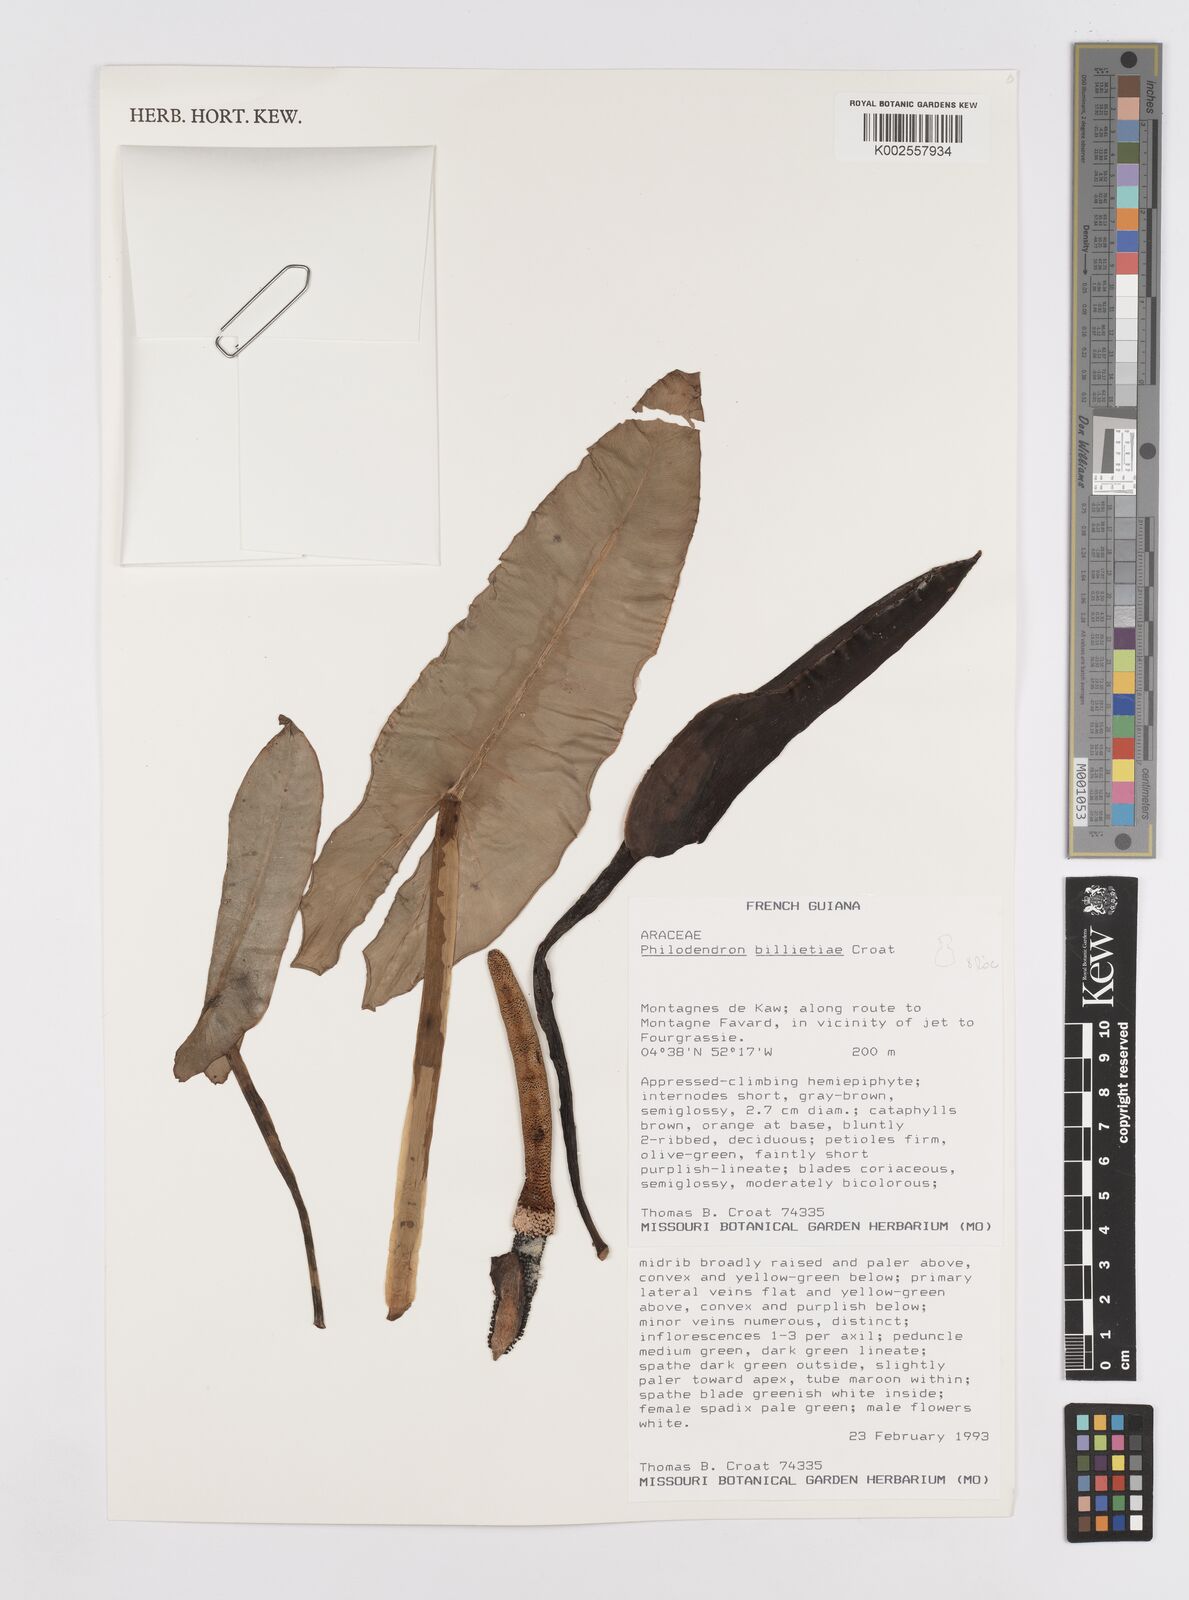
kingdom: Plantae
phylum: Tracheophyta
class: Liliopsida
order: Alismatales
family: Araceae
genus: Philodendron
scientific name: Philodendron billietiae
